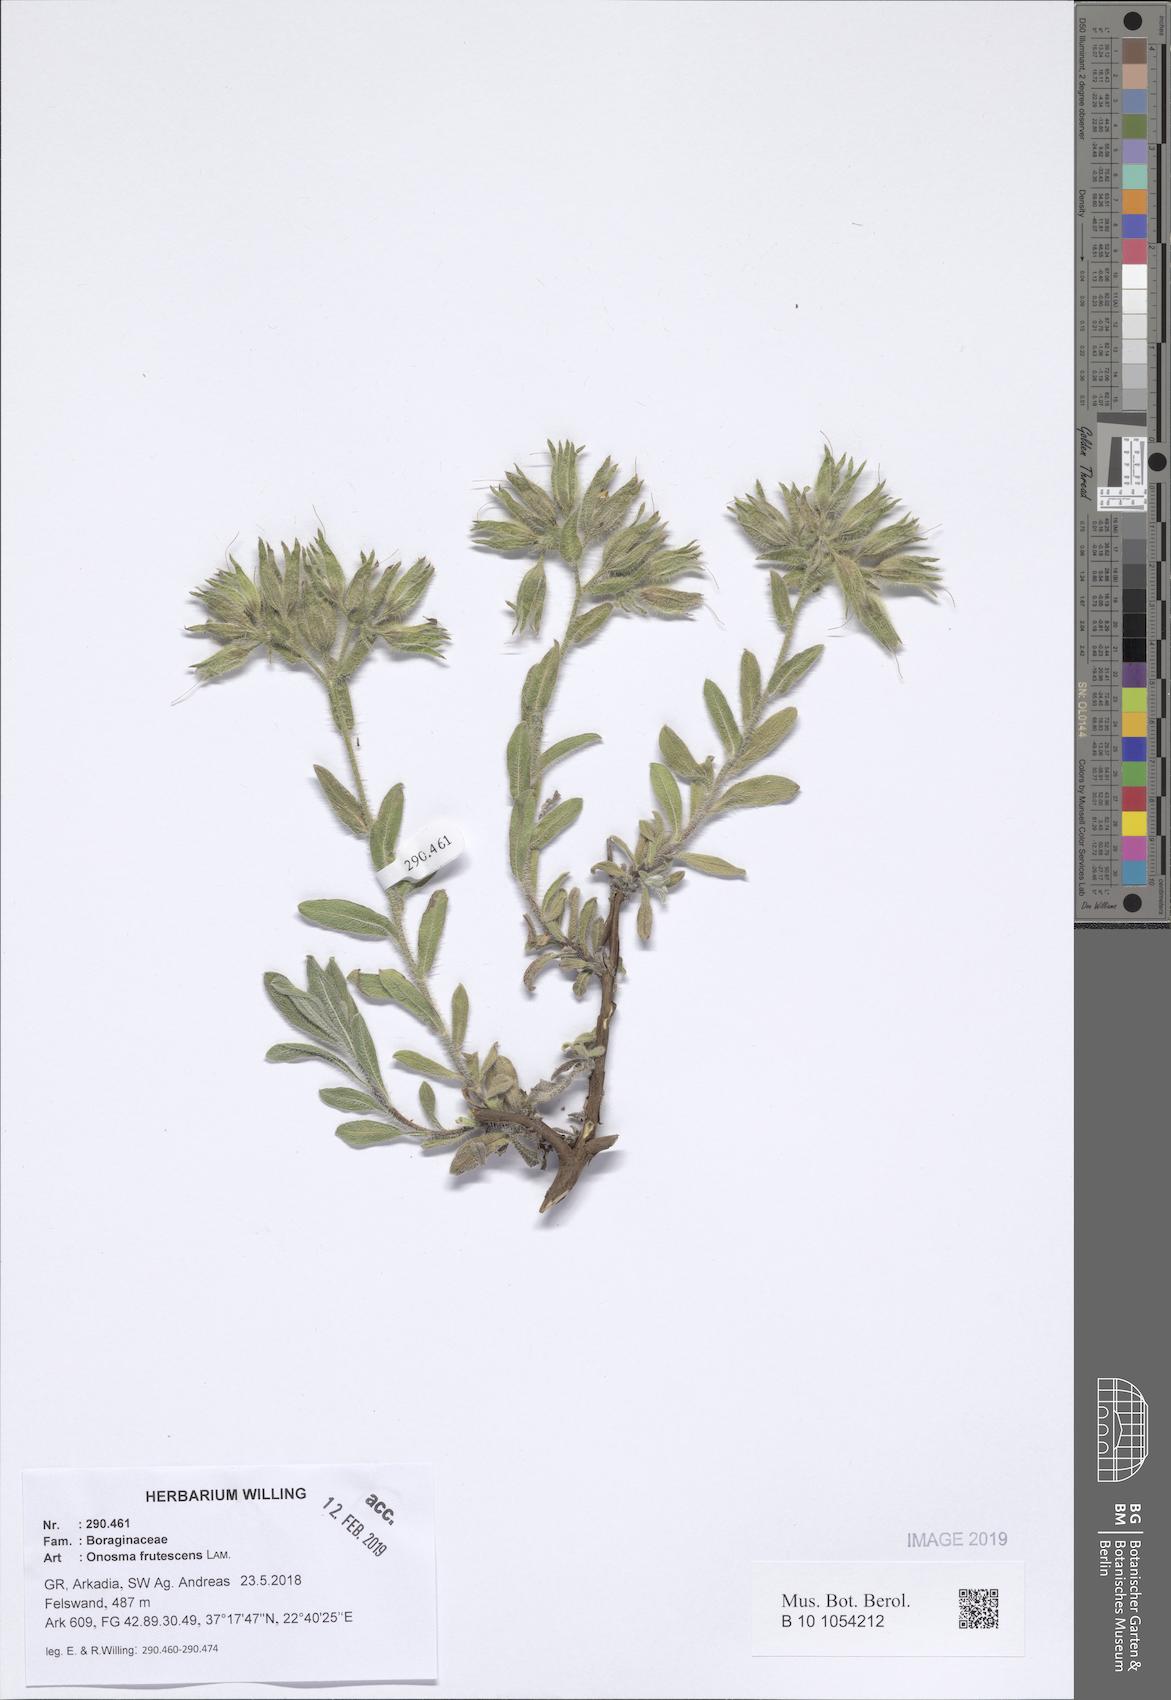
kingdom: Plantae
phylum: Tracheophyta
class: Magnoliopsida
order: Boraginales
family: Boraginaceae
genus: Onosma
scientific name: Onosma frutescens
